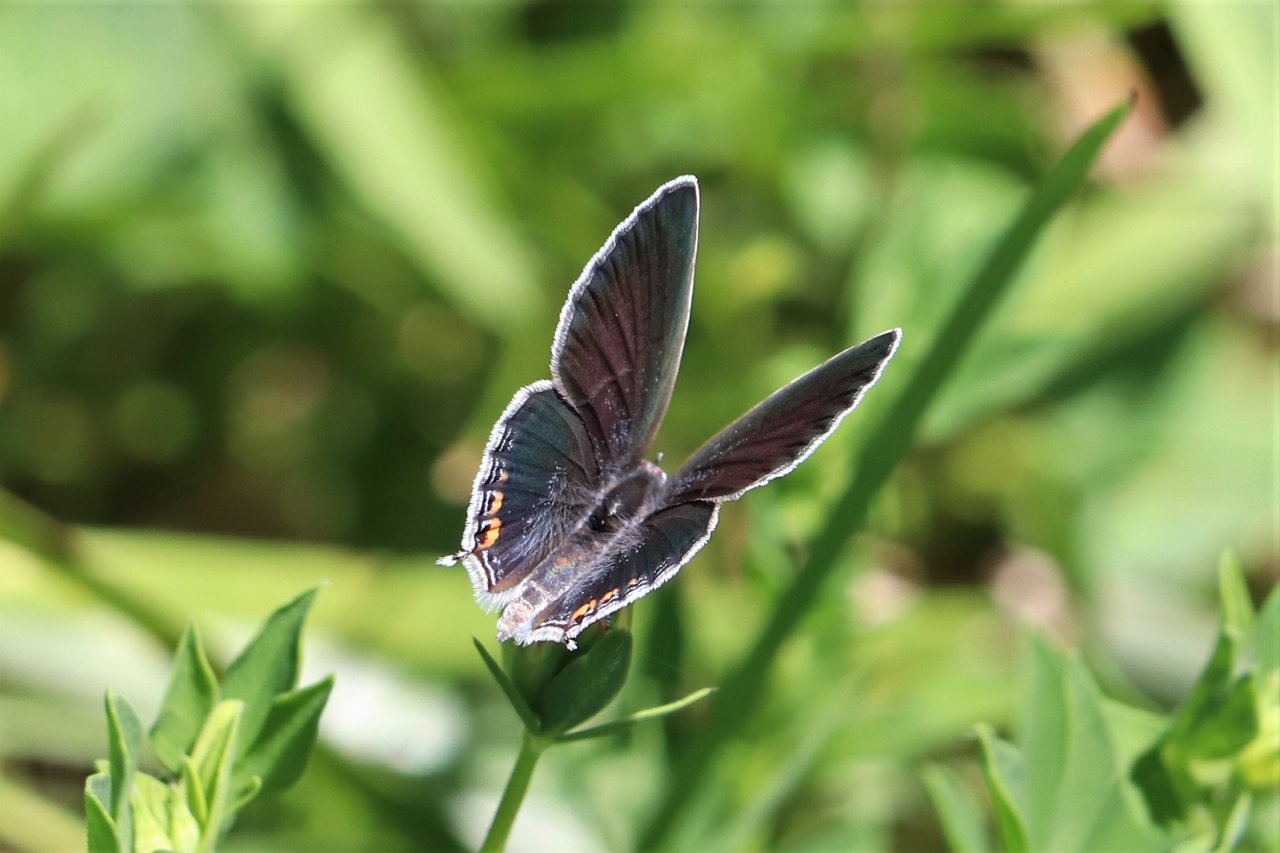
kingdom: Animalia
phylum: Arthropoda
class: Insecta
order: Lepidoptera
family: Lycaenidae
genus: Elkalyce
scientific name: Elkalyce comyntas
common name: Eastern Tailed-Blue
